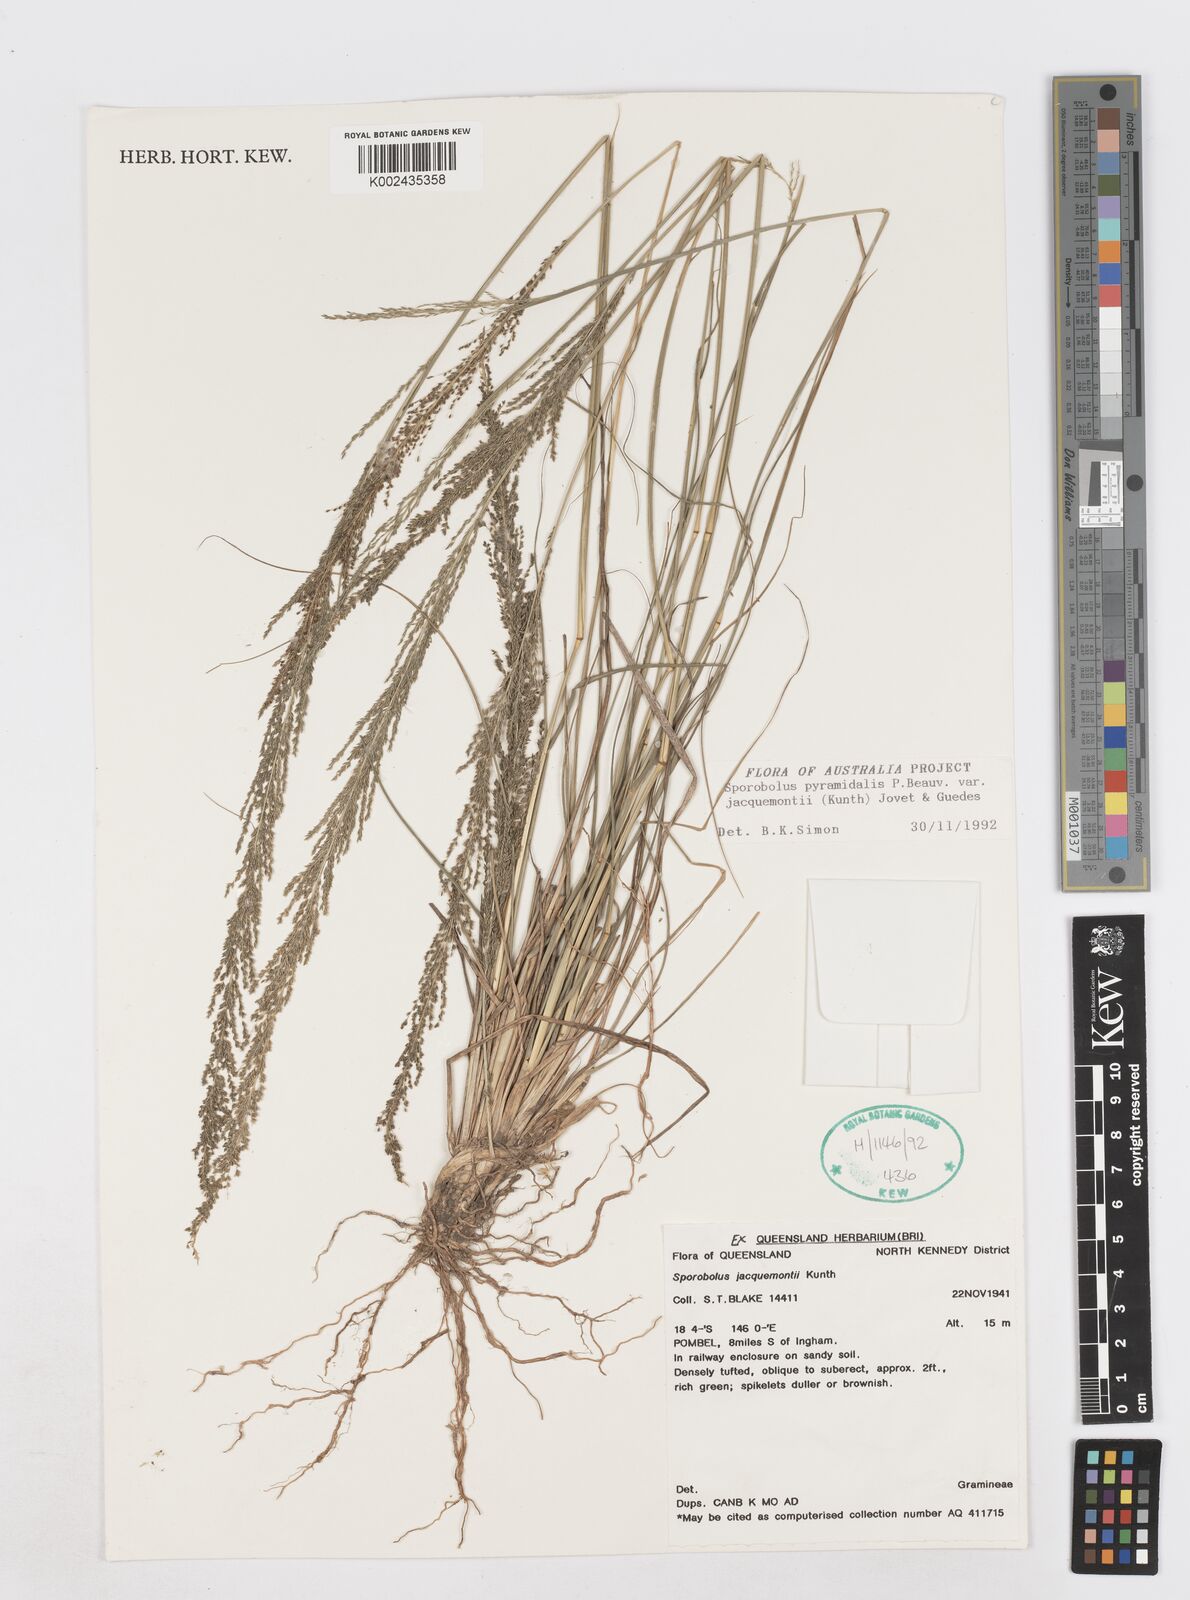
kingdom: Plantae
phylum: Tracheophyta
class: Liliopsida
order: Poales
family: Poaceae
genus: Sporobolus
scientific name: Sporobolus pyramidalis
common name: West indian dropseed
